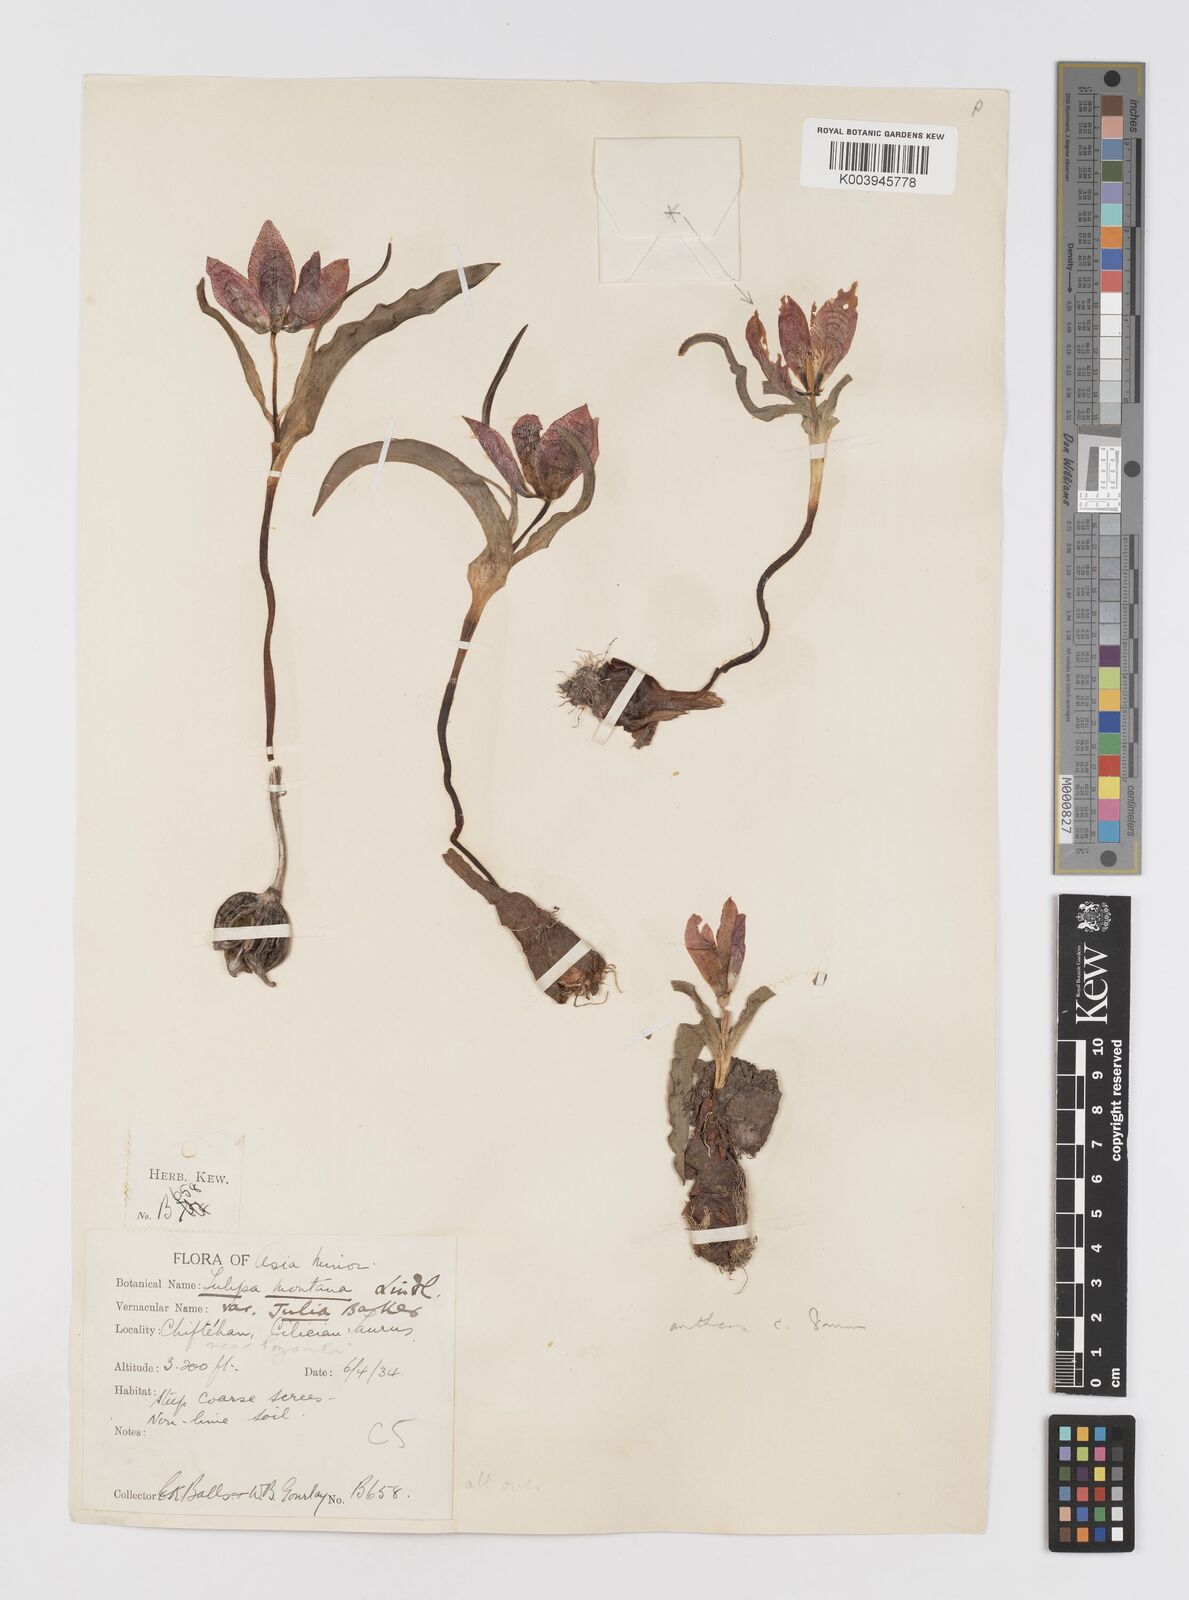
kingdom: Plantae
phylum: Tracheophyta
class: Liliopsida
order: Liliales
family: Liliaceae
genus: Tulipa
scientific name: Tulipa foliosa
